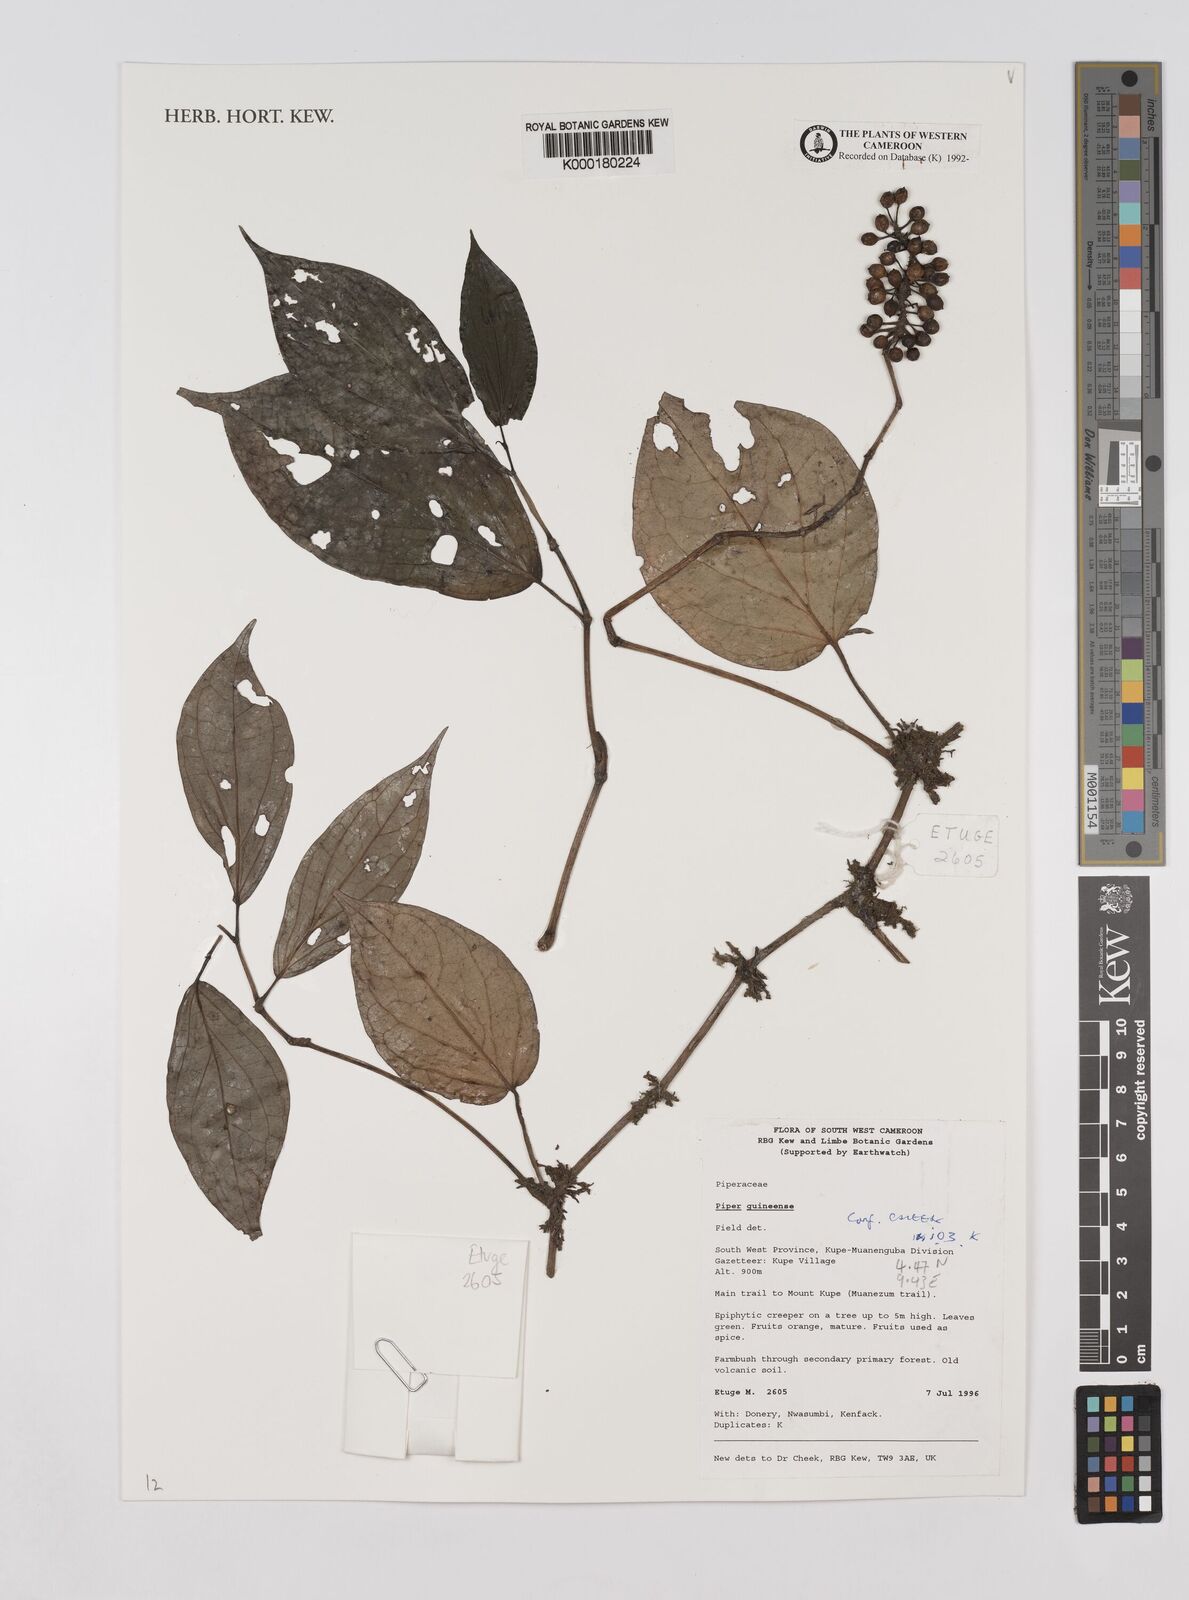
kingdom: Plantae
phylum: Tracheophyta
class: Magnoliopsida
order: Piperales
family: Piperaceae
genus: Piper
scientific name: Piper guineense
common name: Benin pepper
